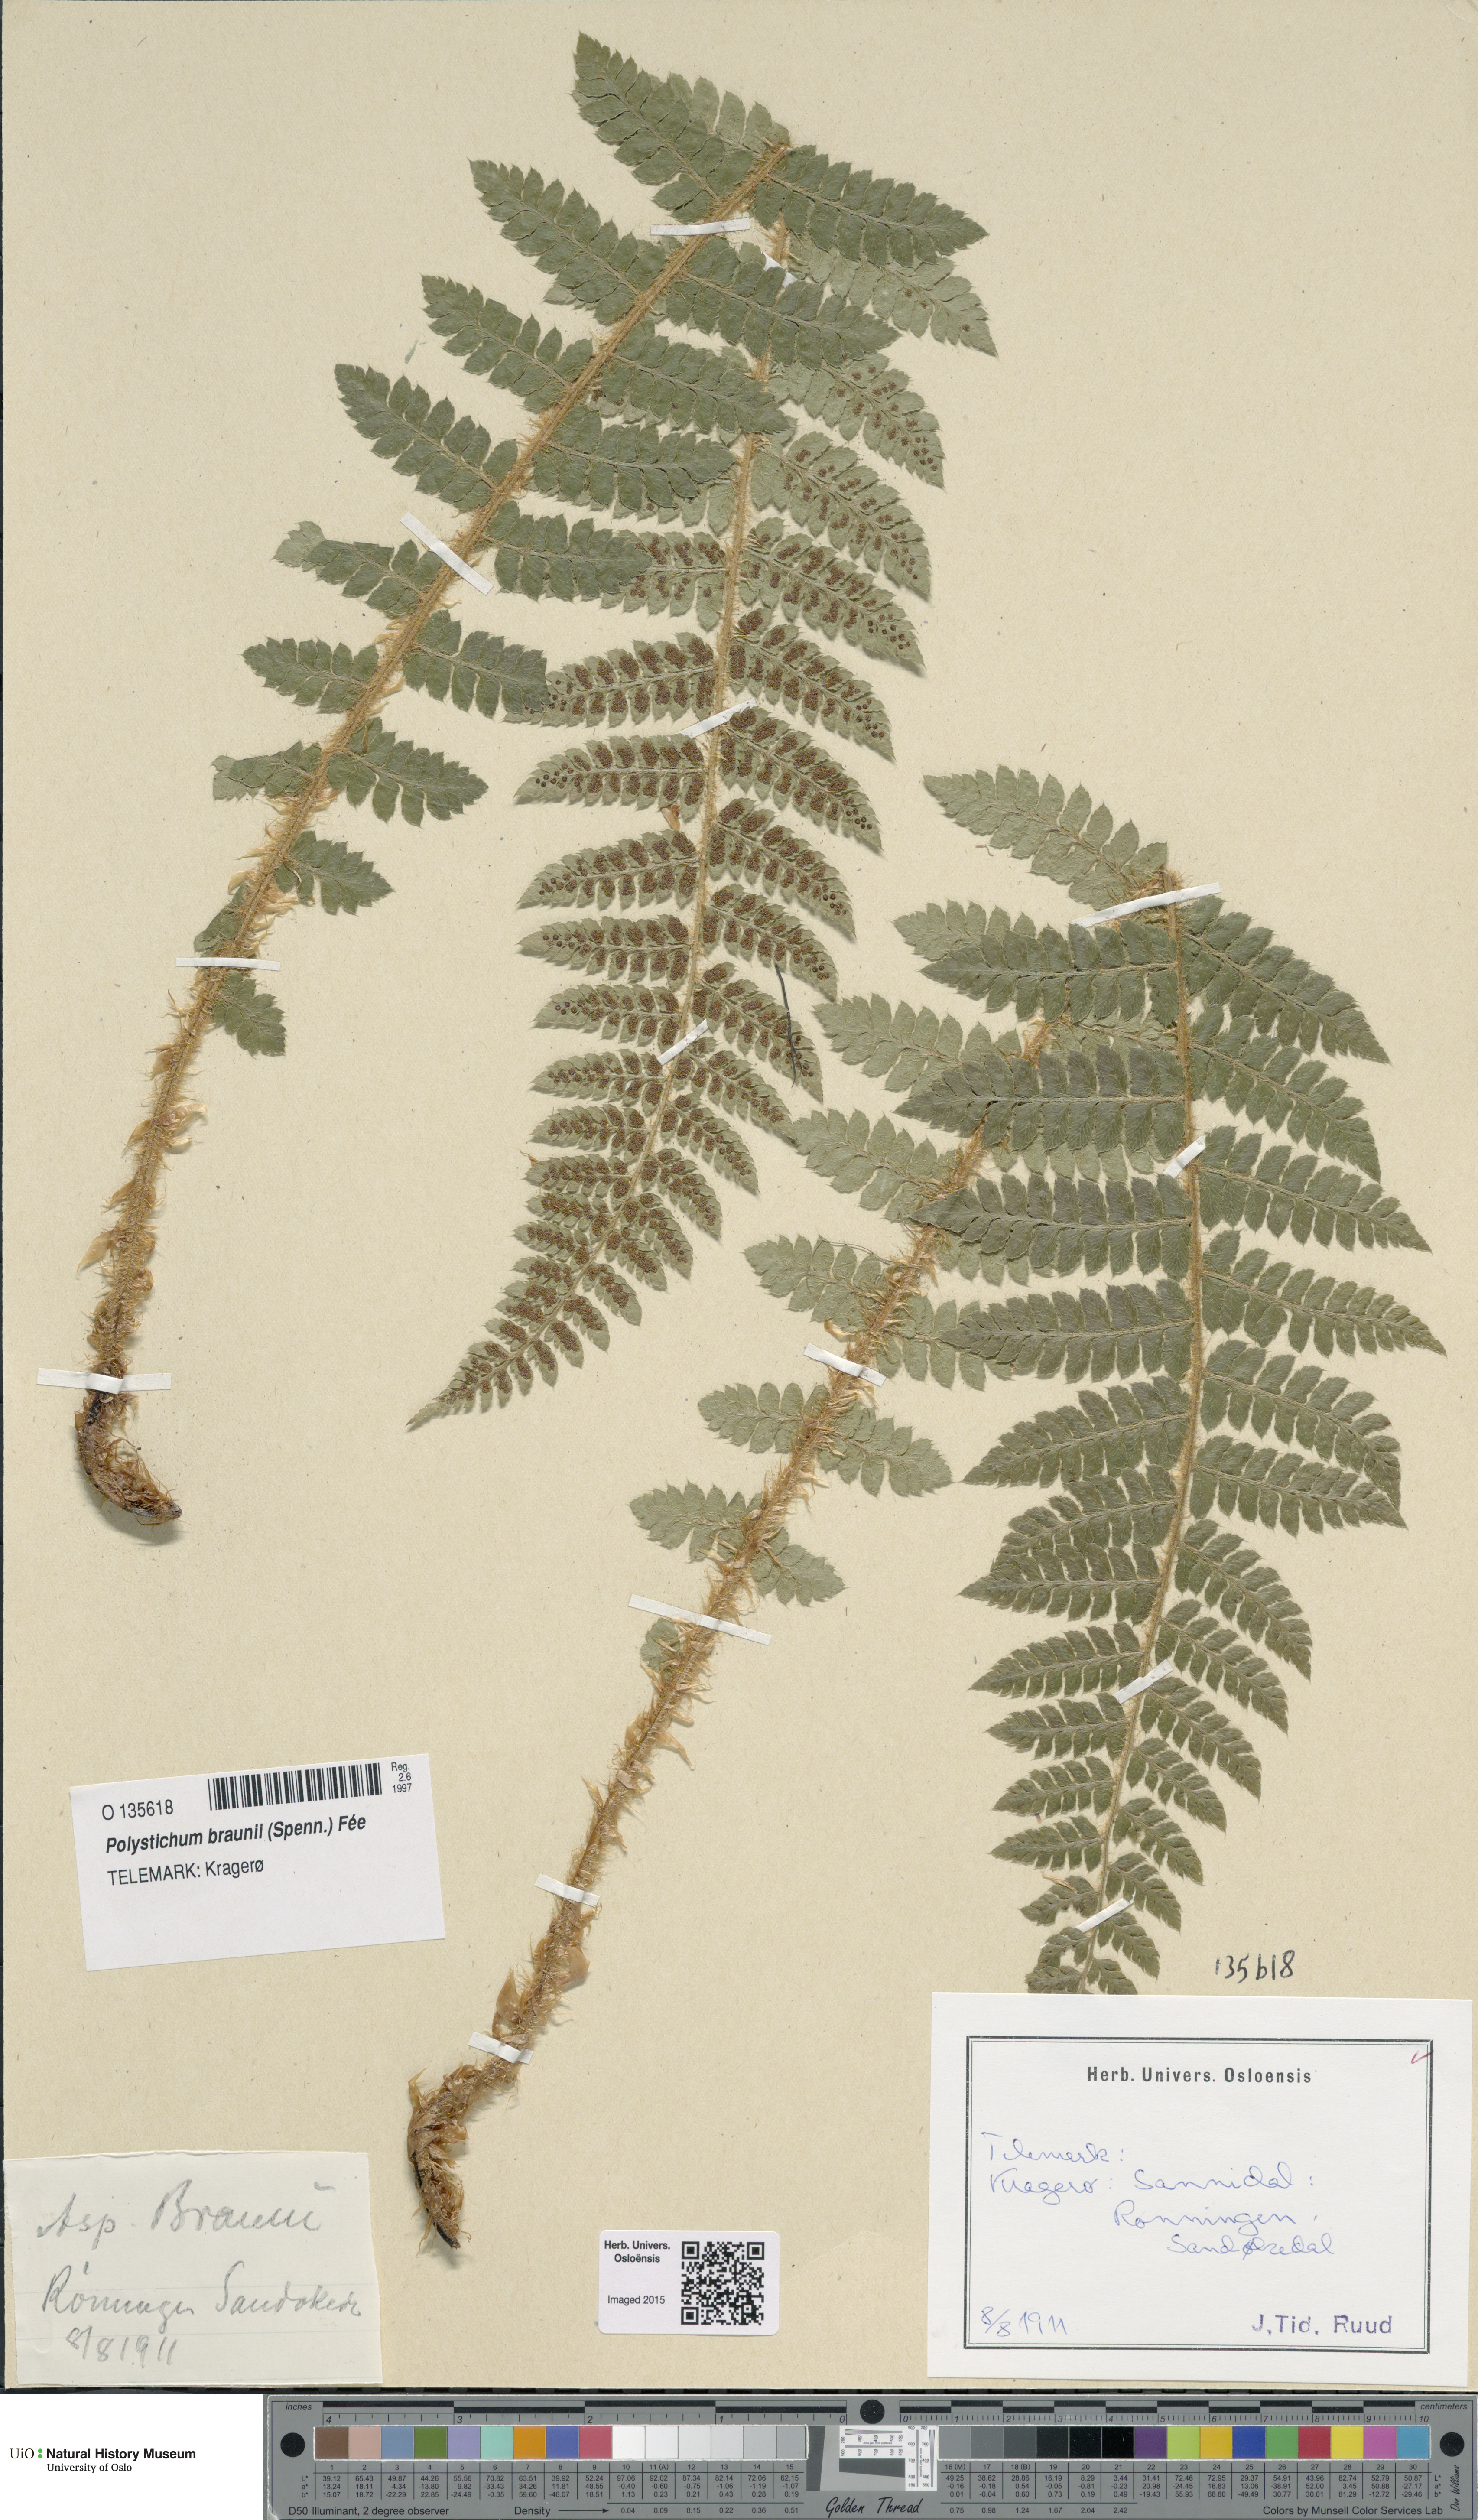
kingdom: Plantae
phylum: Tracheophyta
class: Polypodiopsida
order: Polypodiales
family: Dryopteridaceae
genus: Polystichum
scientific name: Polystichum braunii
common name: Braun's holly fern
